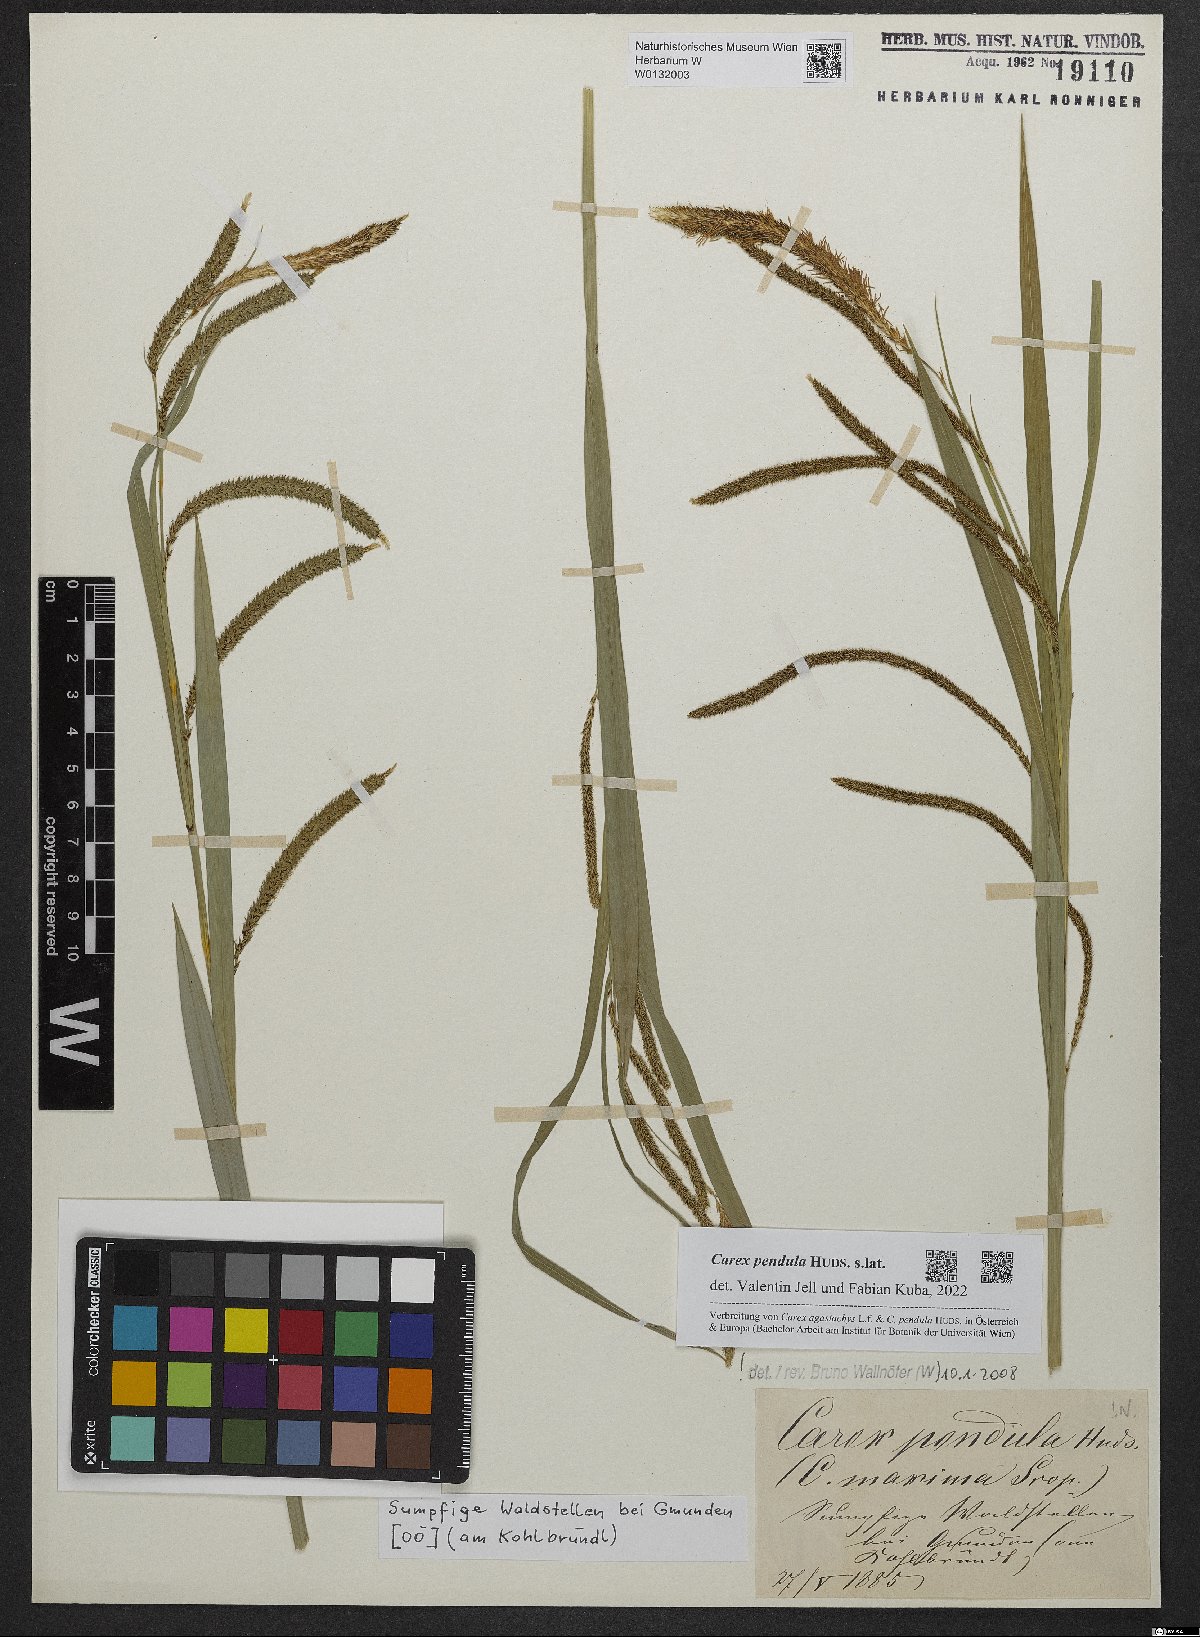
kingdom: Plantae
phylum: Tracheophyta
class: Liliopsida
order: Poales
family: Cyperaceae
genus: Carex
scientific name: Carex pendula
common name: Pendulous sedge
